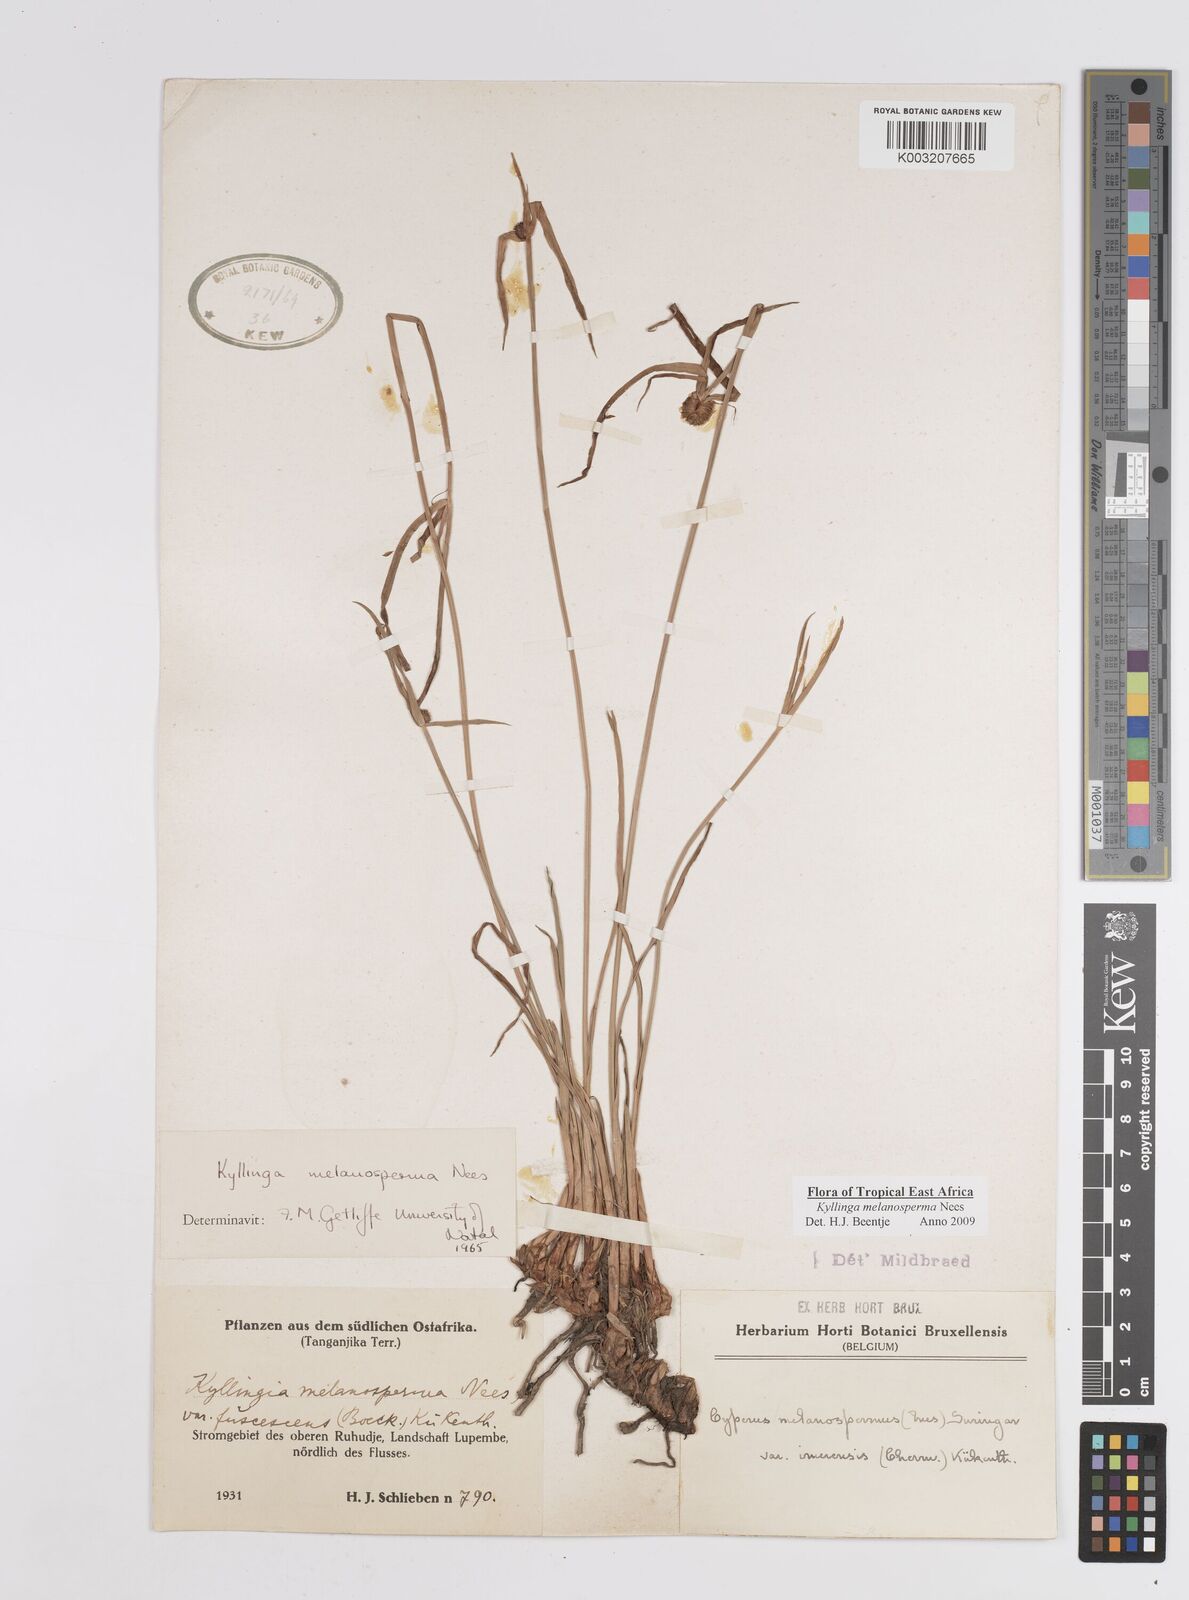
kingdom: Plantae
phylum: Tracheophyta
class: Liliopsida
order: Poales
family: Cyperaceae
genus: Cyperus
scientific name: Cyperus melanospermus
